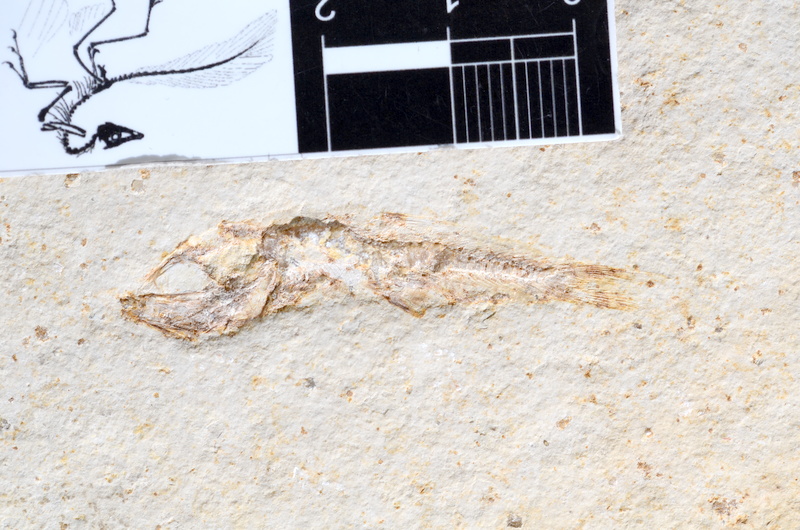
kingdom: Animalia
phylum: Chordata
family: Ascalaboidae
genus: Tharsis
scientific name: Tharsis dubius
